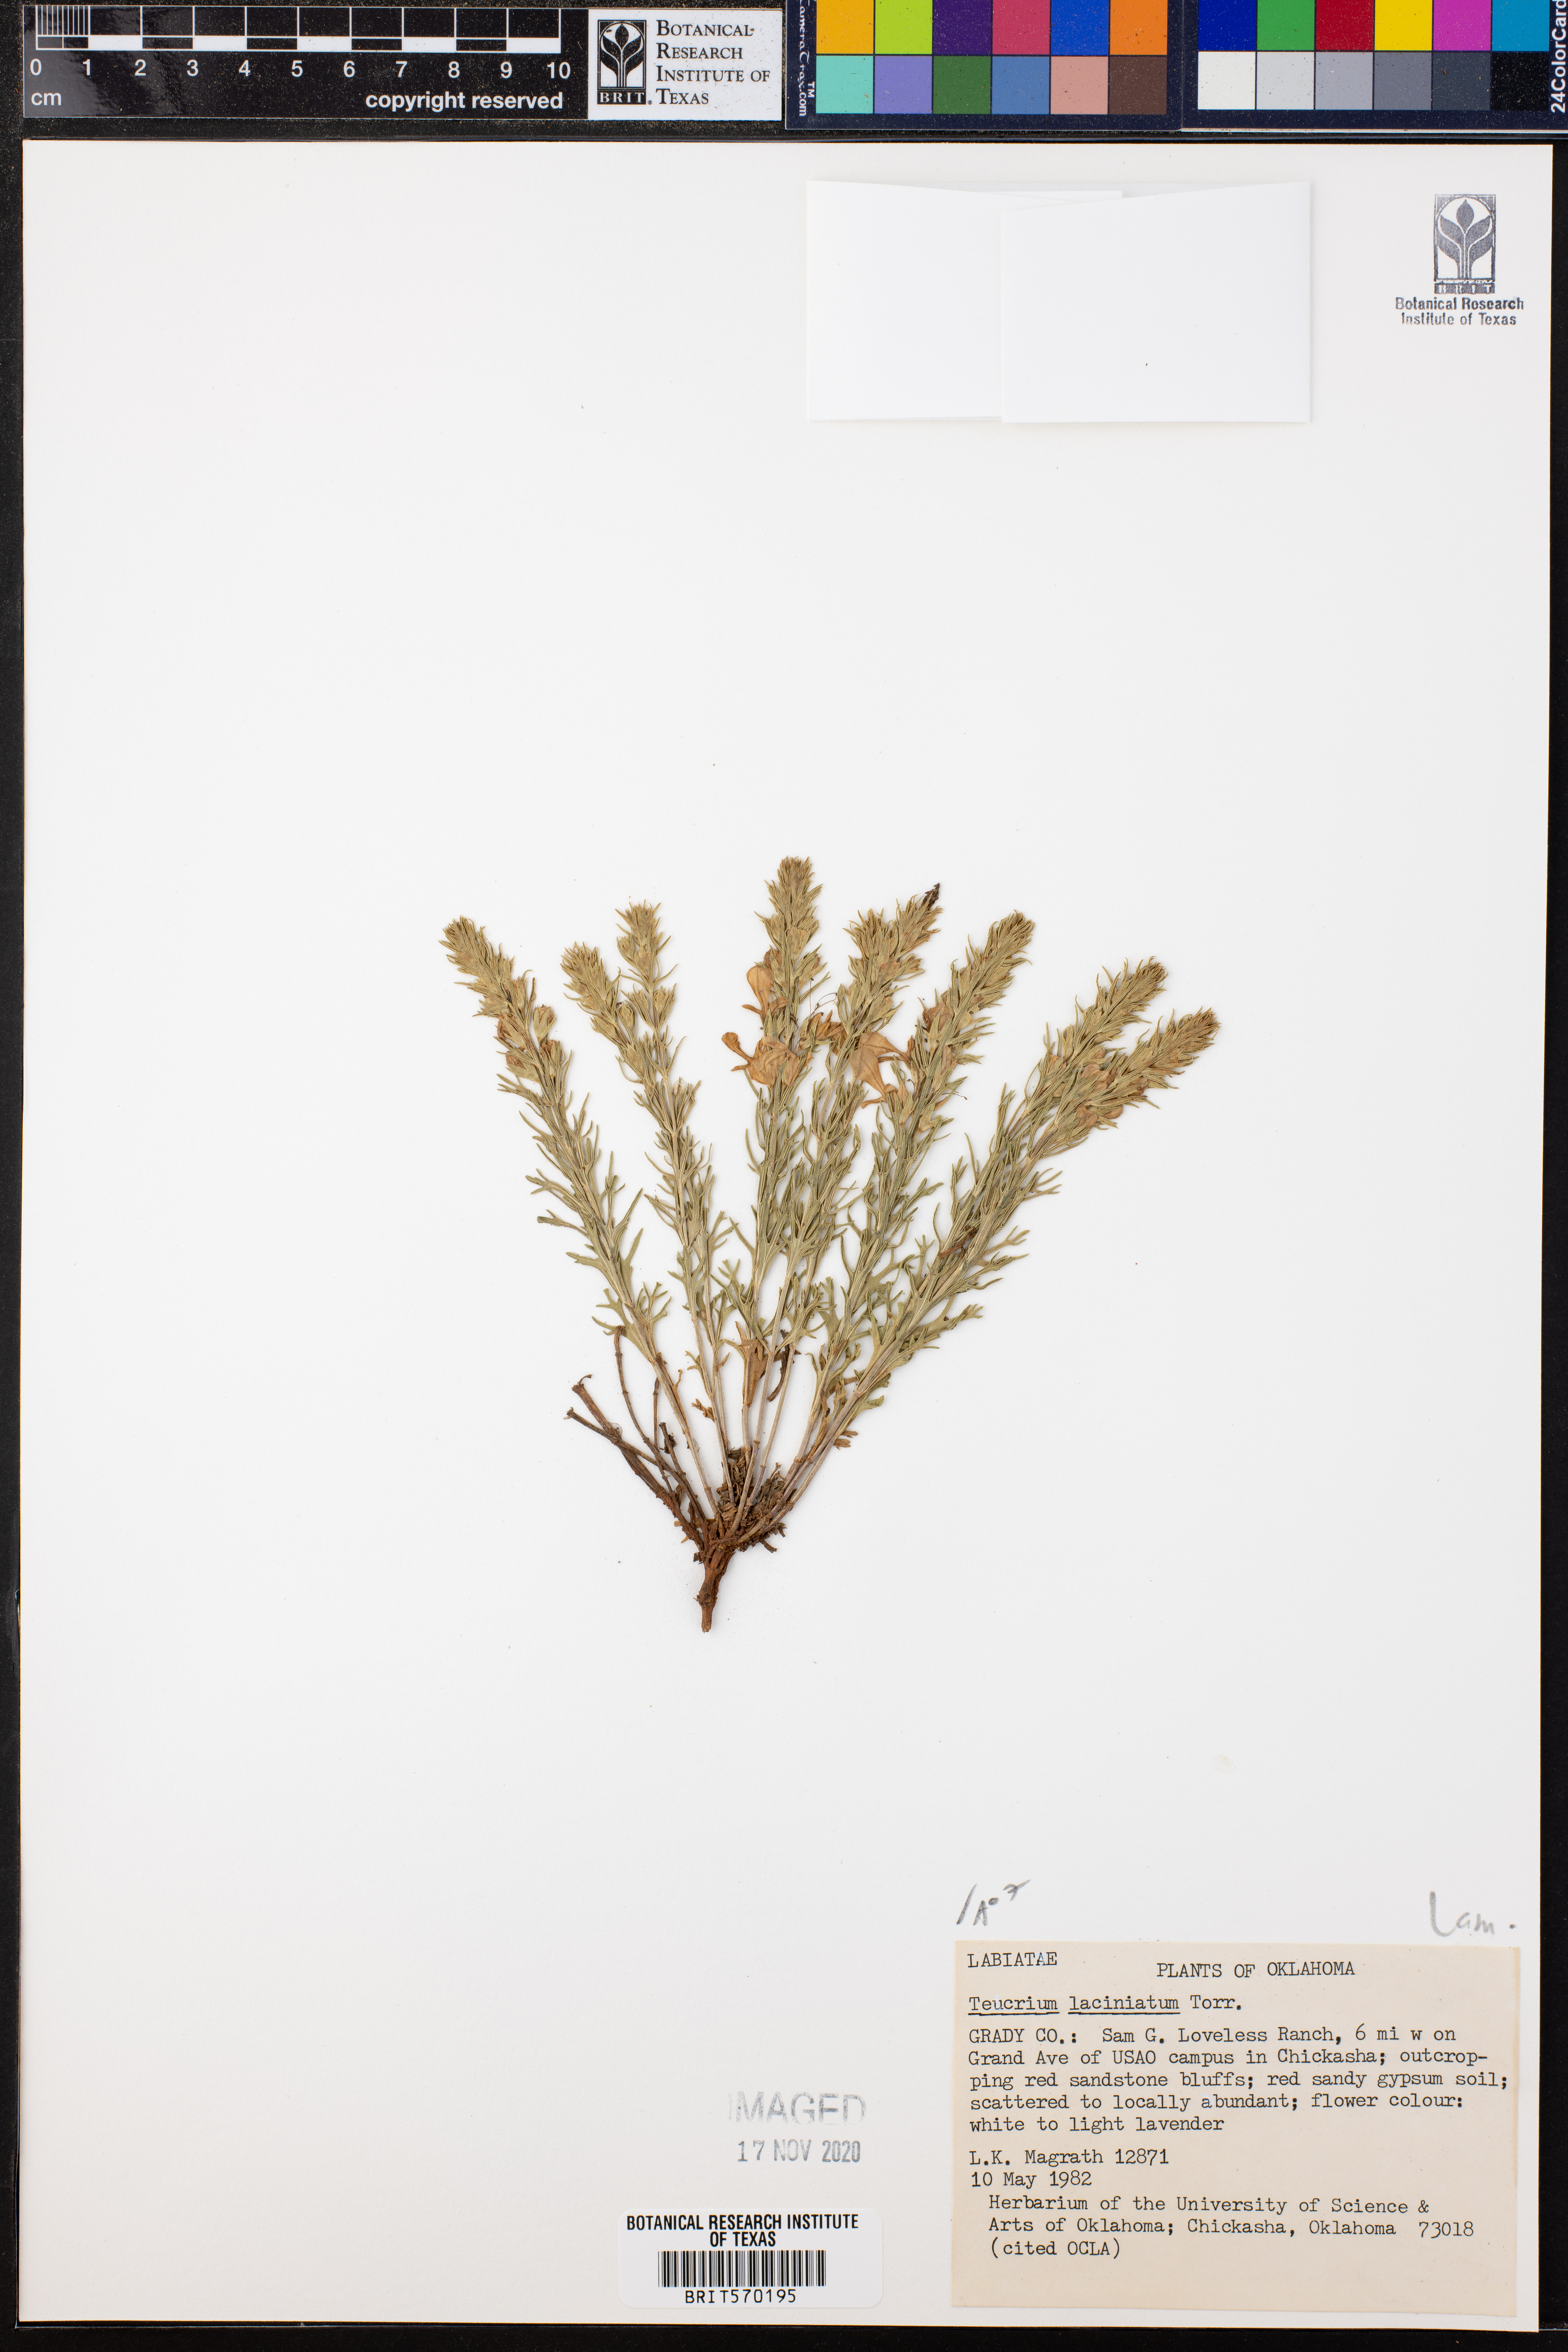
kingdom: Plantae
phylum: Tracheophyta
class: Magnoliopsida
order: Lamiales
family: Lamiaceae
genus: Teucrium
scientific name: Teucrium laciniatum
